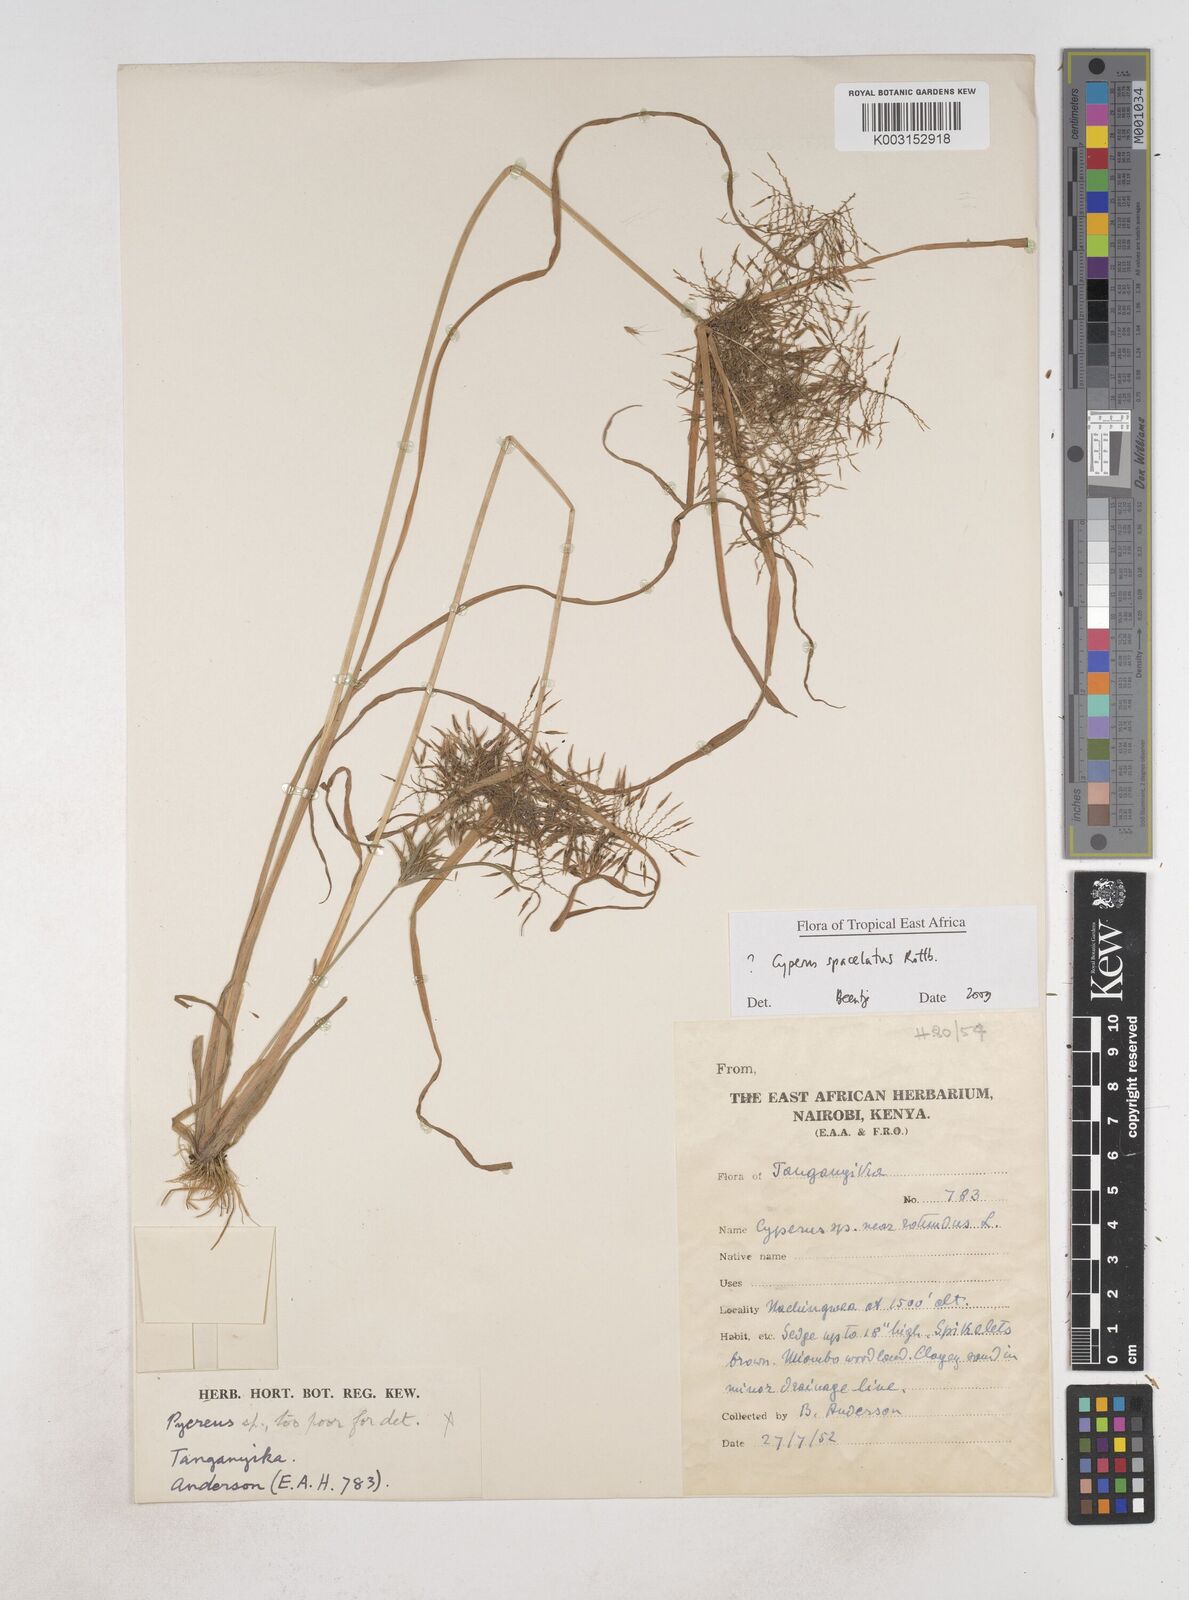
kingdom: Plantae
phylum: Tracheophyta
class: Liliopsida
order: Poales
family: Cyperaceae
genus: Cyperus
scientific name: Cyperus sphacelatus
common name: Roadside flatsedge
